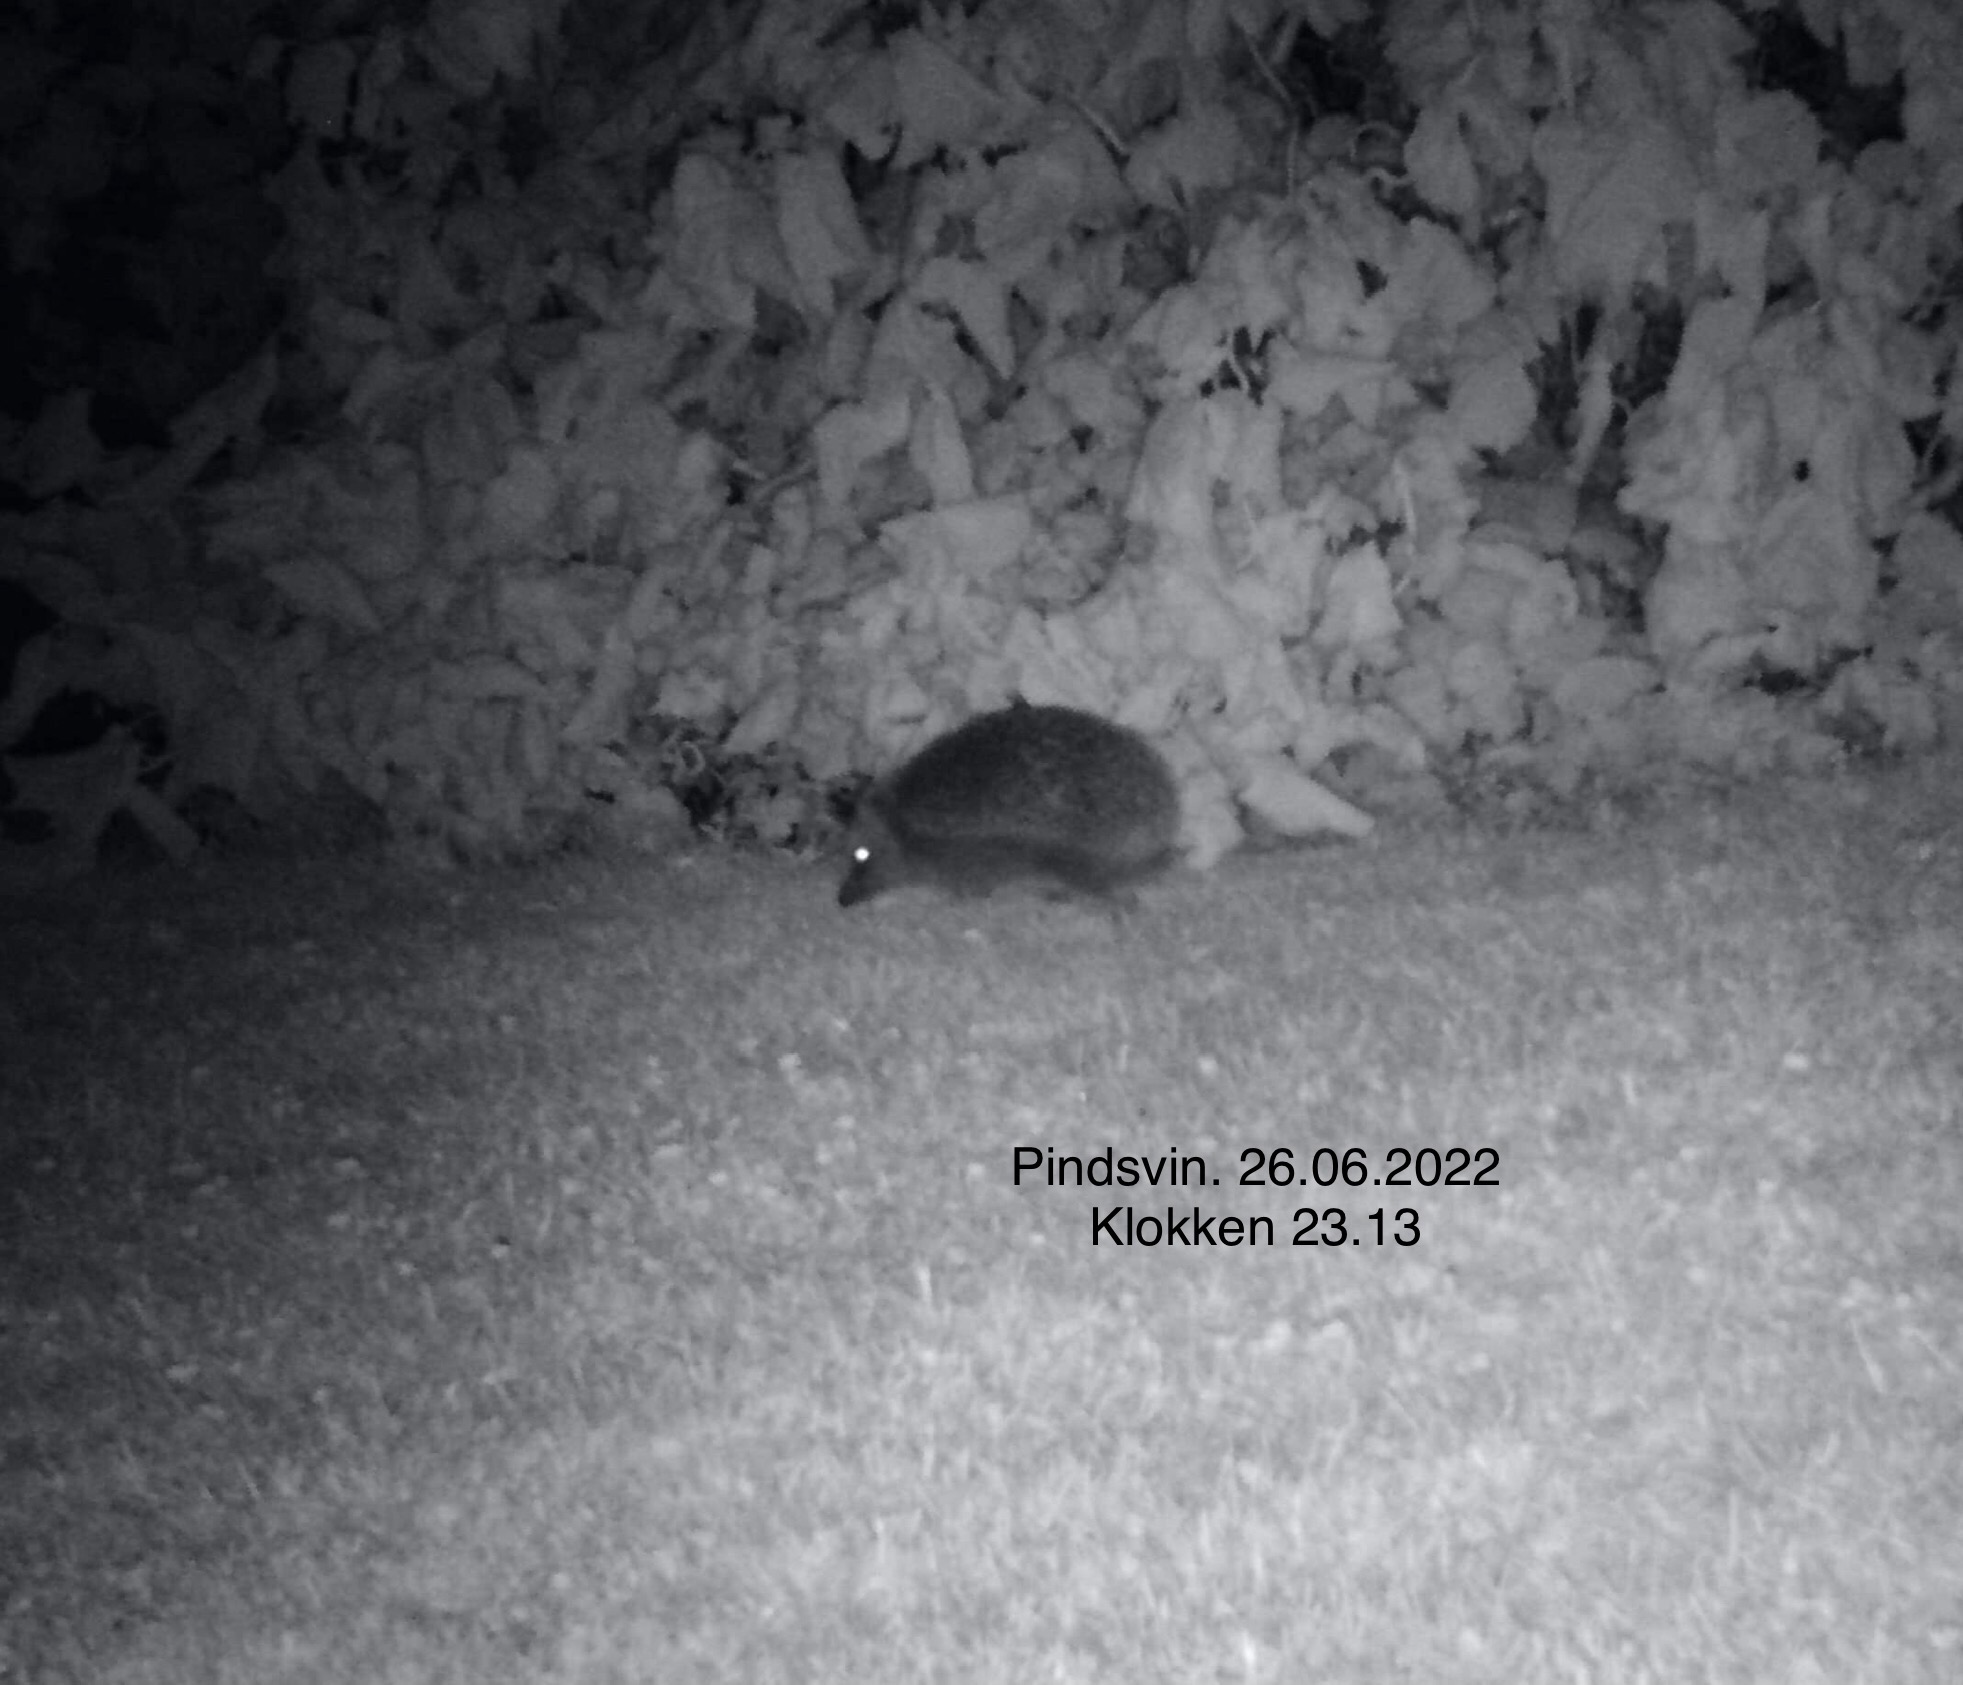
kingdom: Animalia
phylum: Chordata
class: Mammalia
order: Erinaceomorpha
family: Erinaceidae
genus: Erinaceus
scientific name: Erinaceus europaeus
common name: Pindsvin
